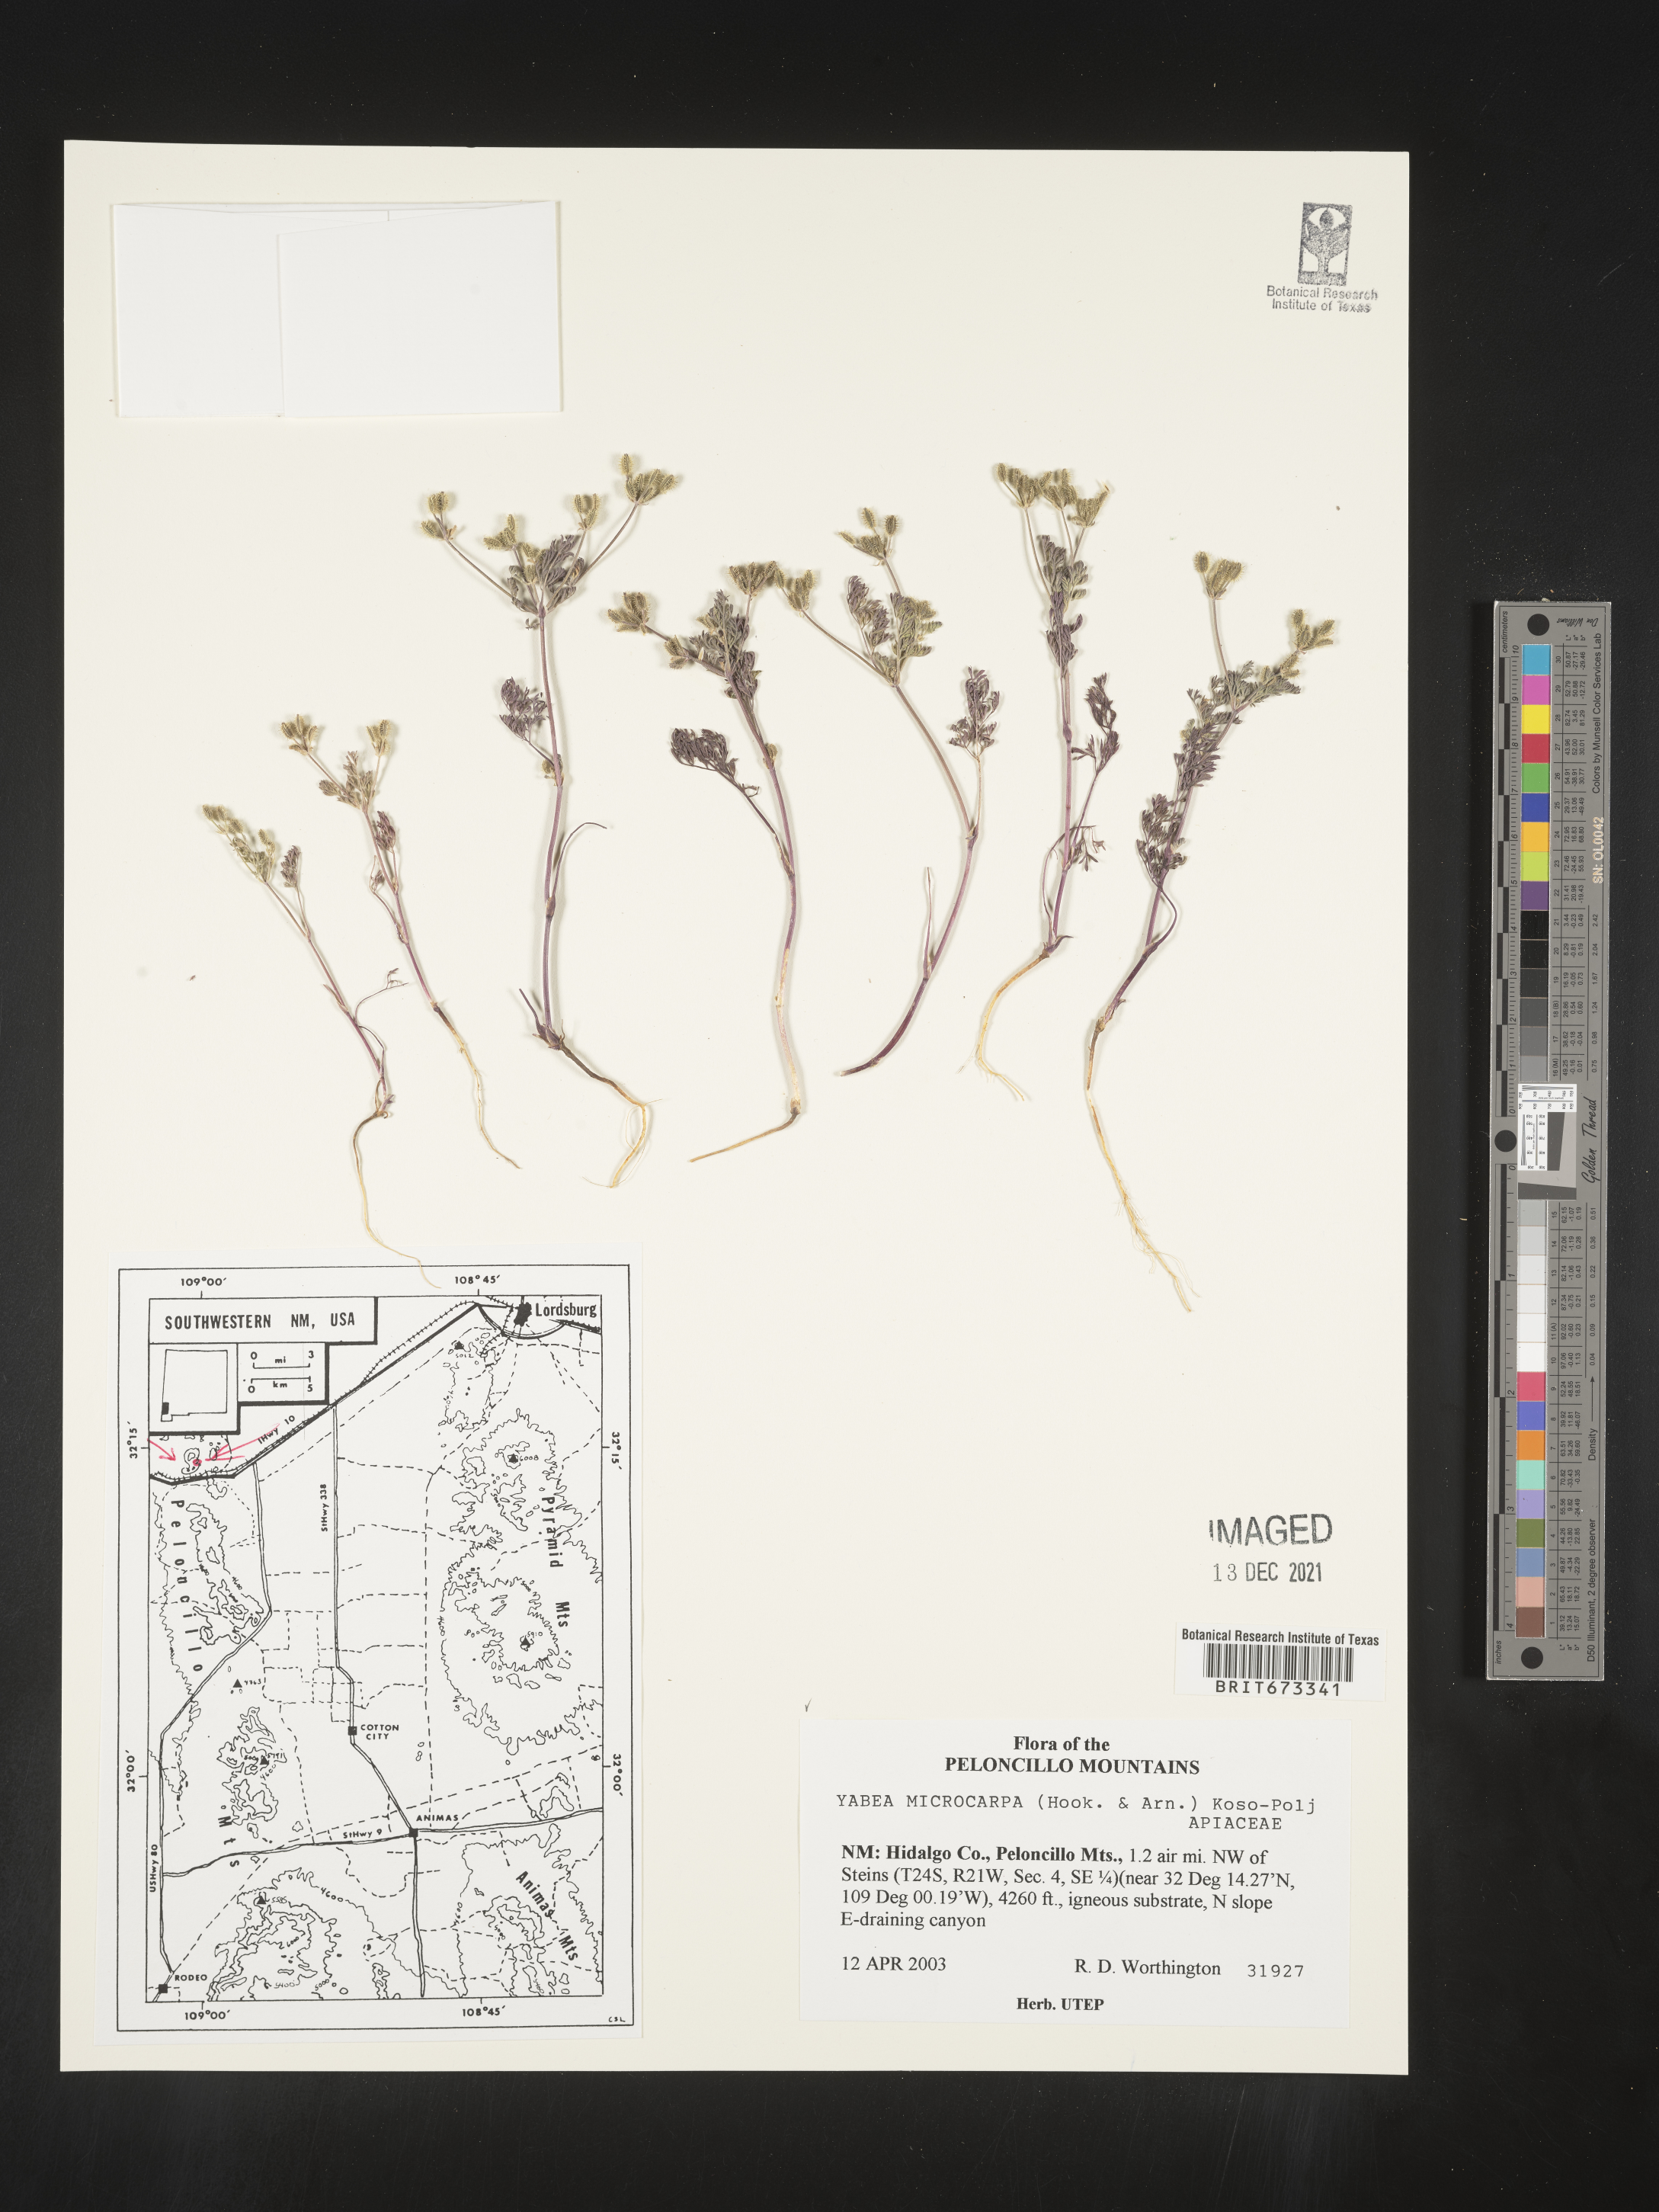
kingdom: Plantae
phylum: Tracheophyta
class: Magnoliopsida
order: Apiales
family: Apiaceae
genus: Yabea
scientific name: Yabea microcarpa
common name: False carrot
